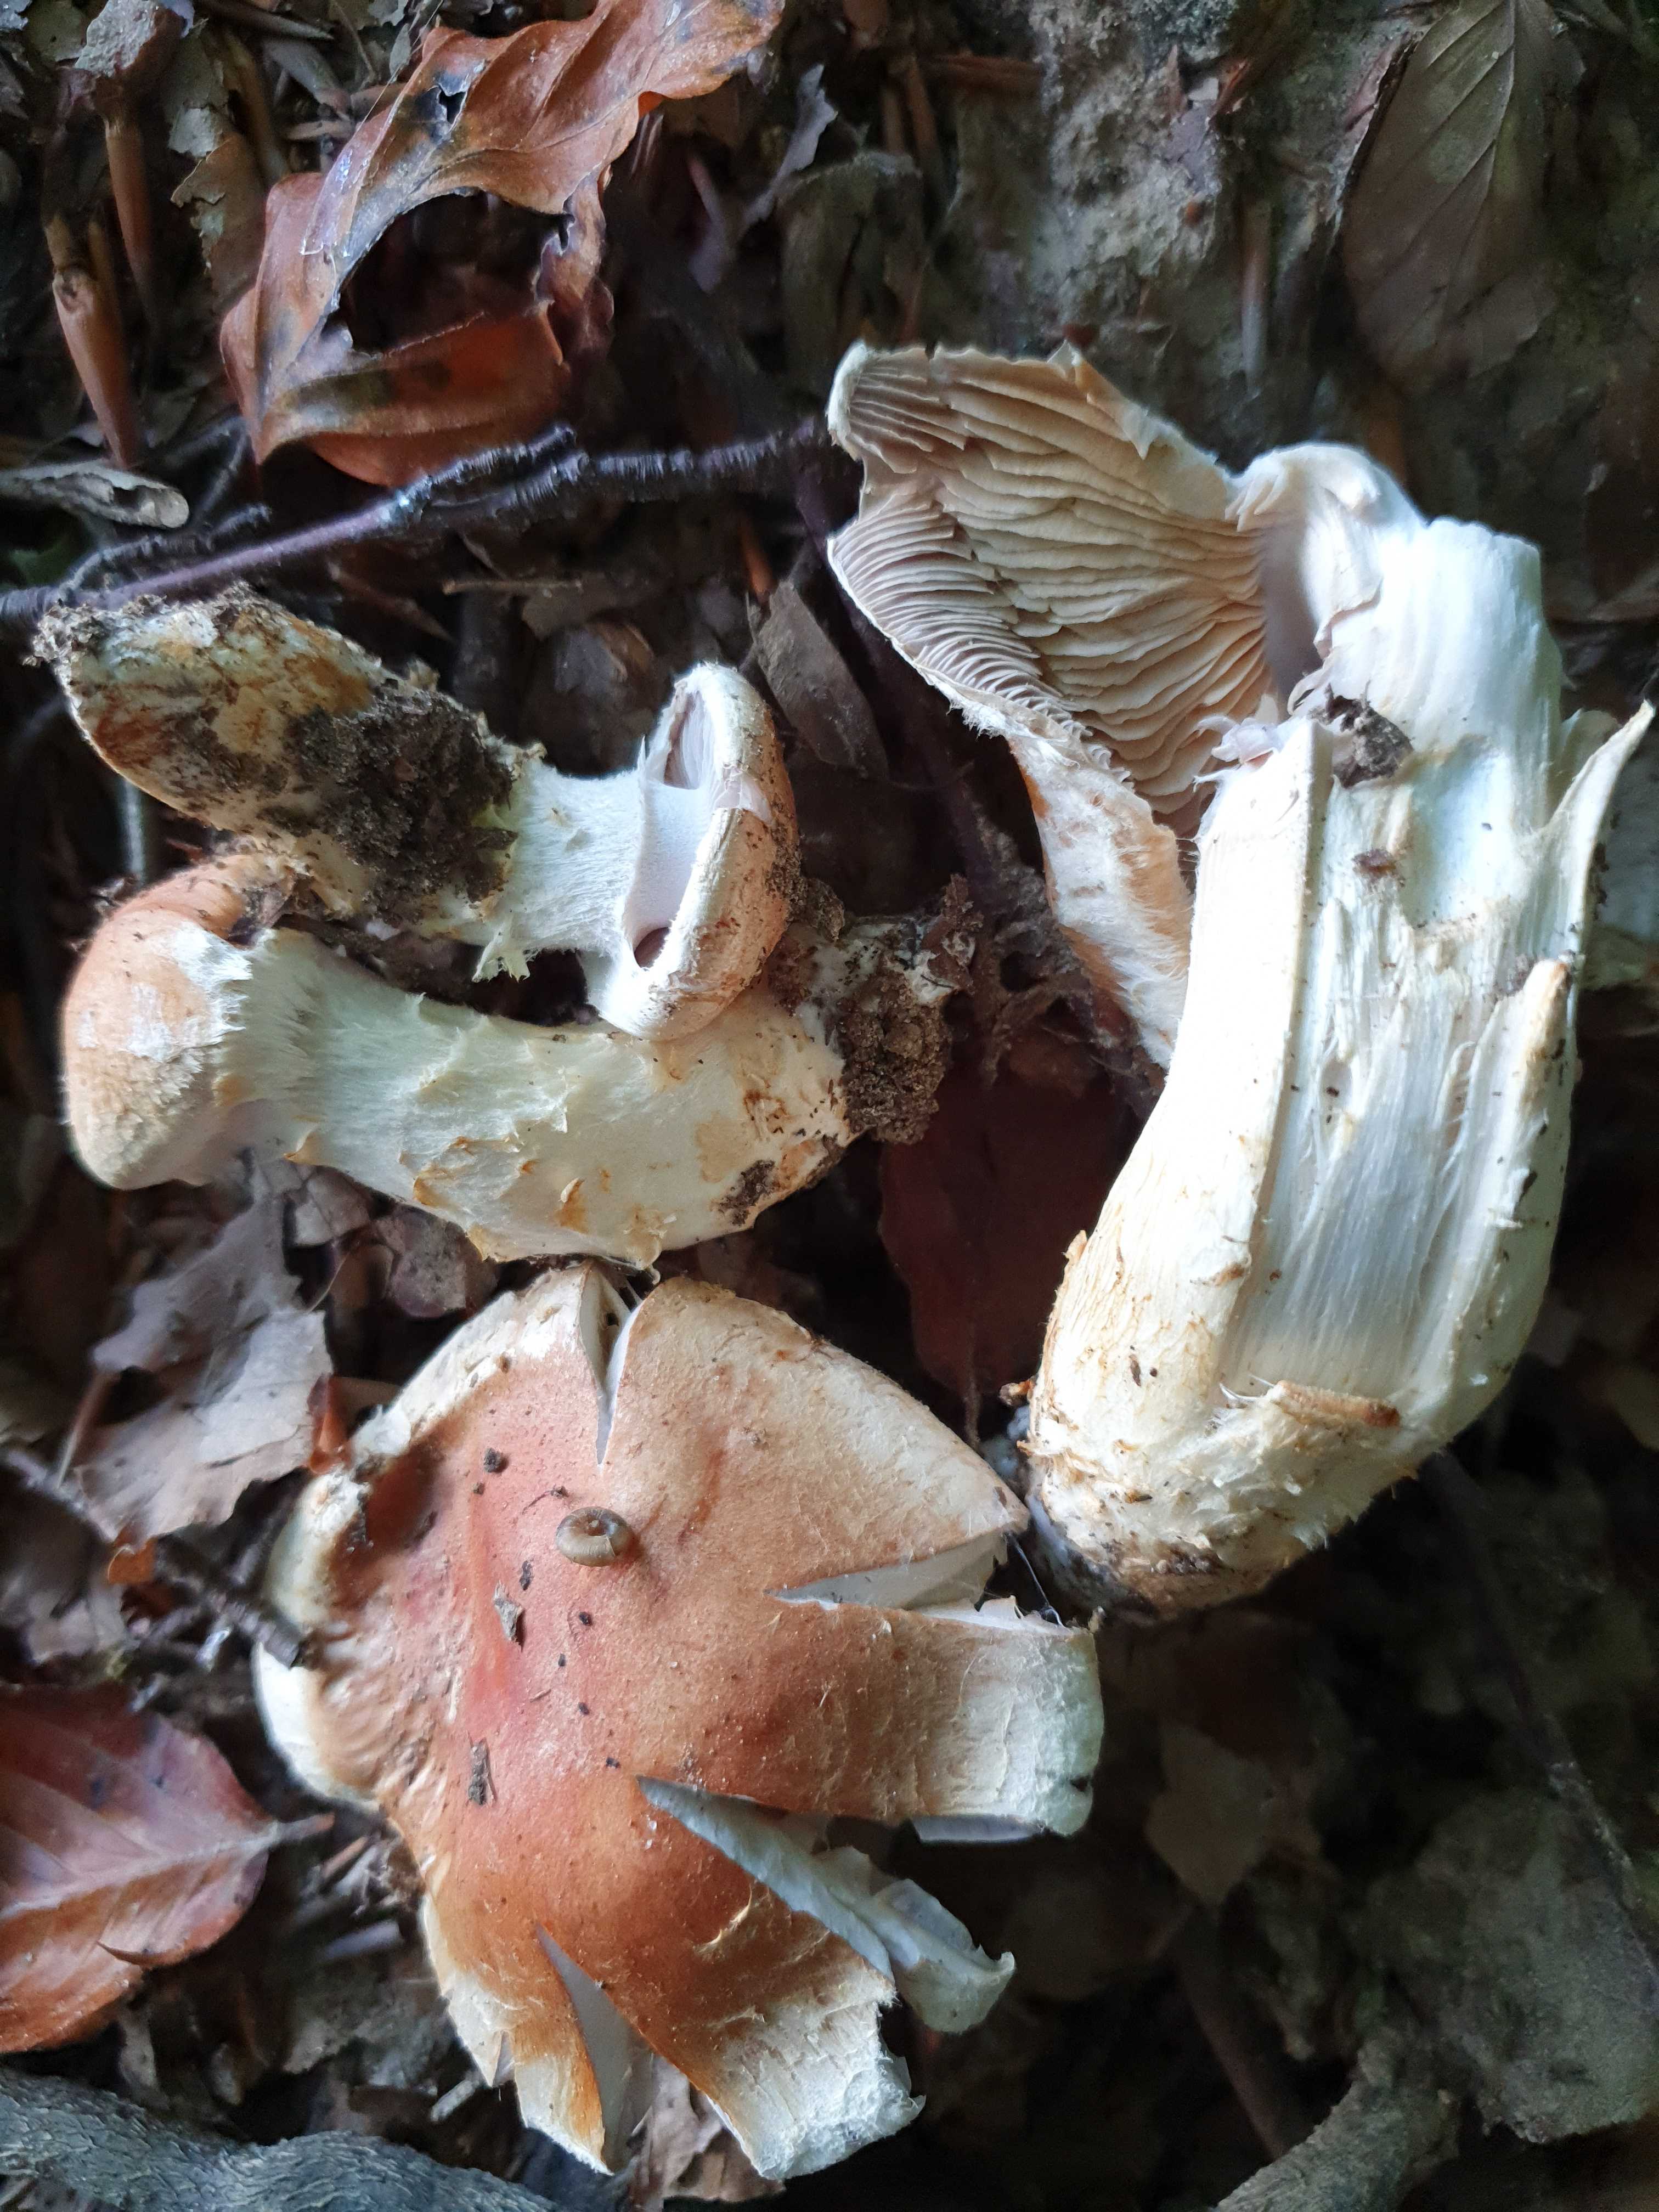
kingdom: Fungi
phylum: Basidiomycota
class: Agaricomycetes
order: Agaricales
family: Cortinariaceae
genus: Phlegmacium
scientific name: Phlegmacium vulpinum
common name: ringbæltet slørhat
